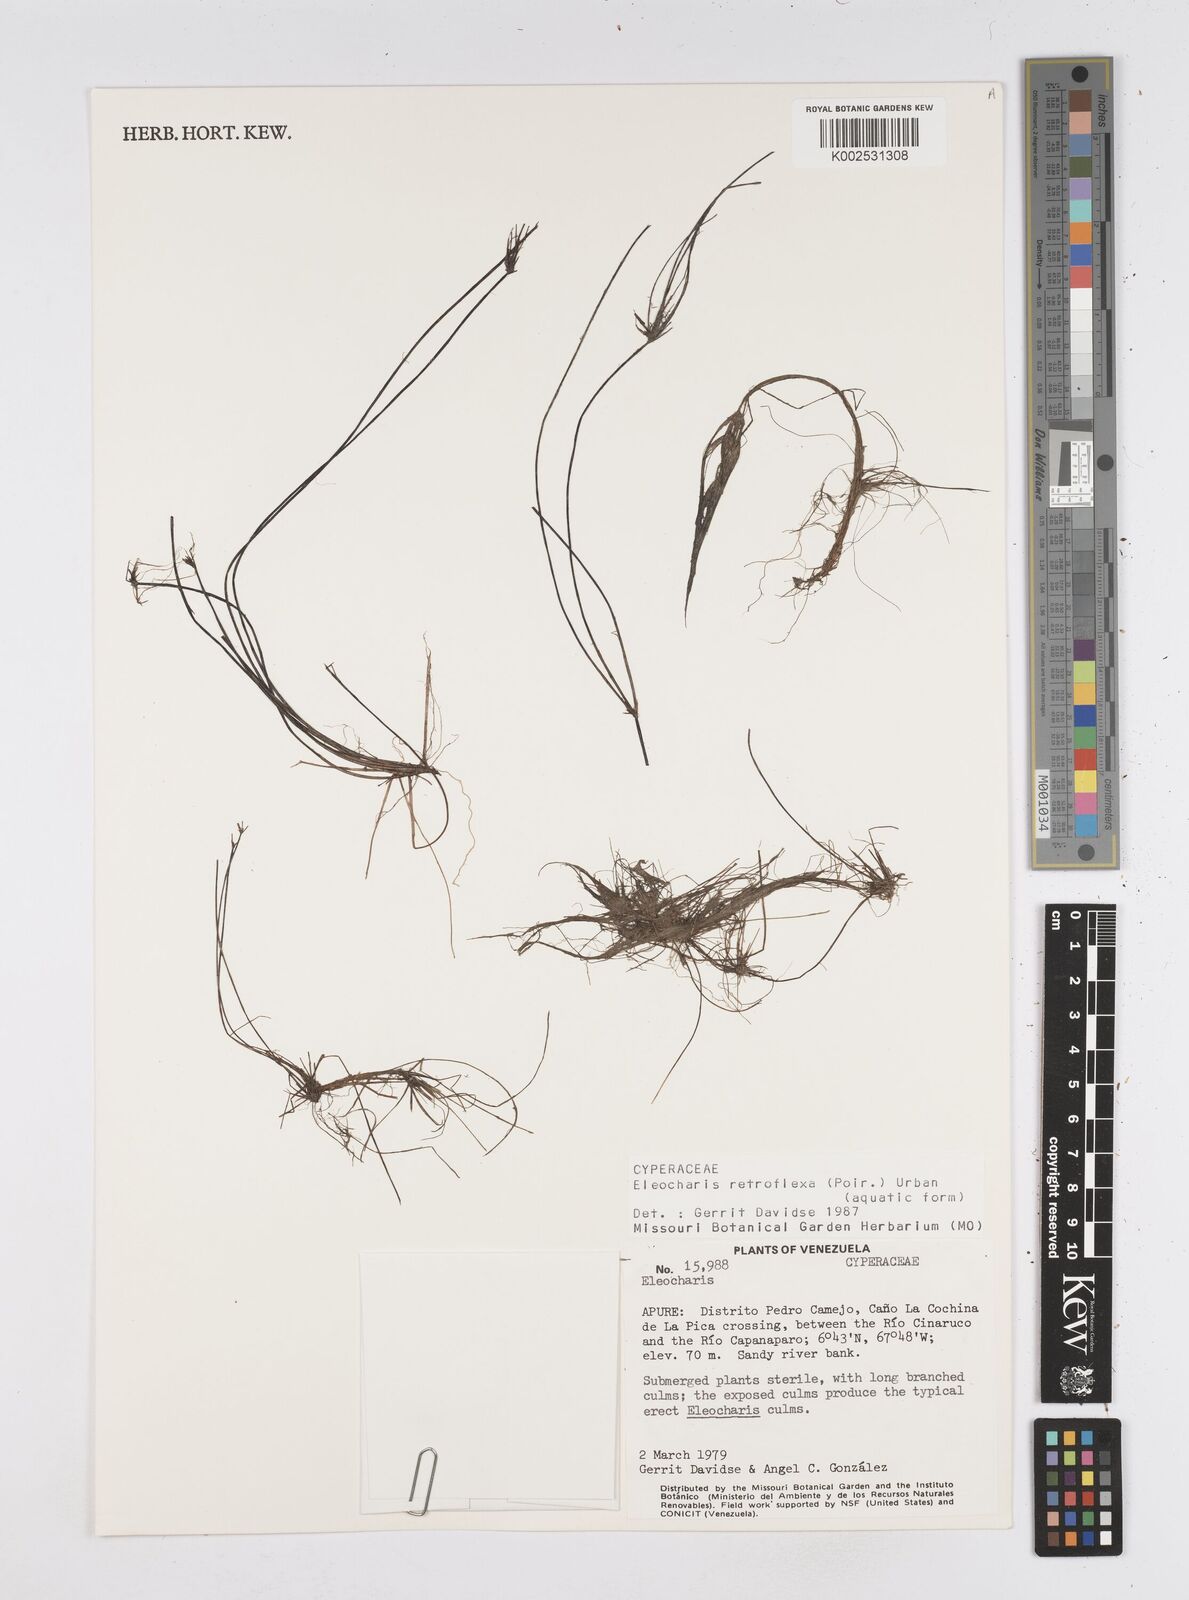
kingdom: Plantae
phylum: Tracheophyta
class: Liliopsida
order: Poales
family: Cyperaceae
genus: Eleocharis
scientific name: Eleocharis retroflexa
